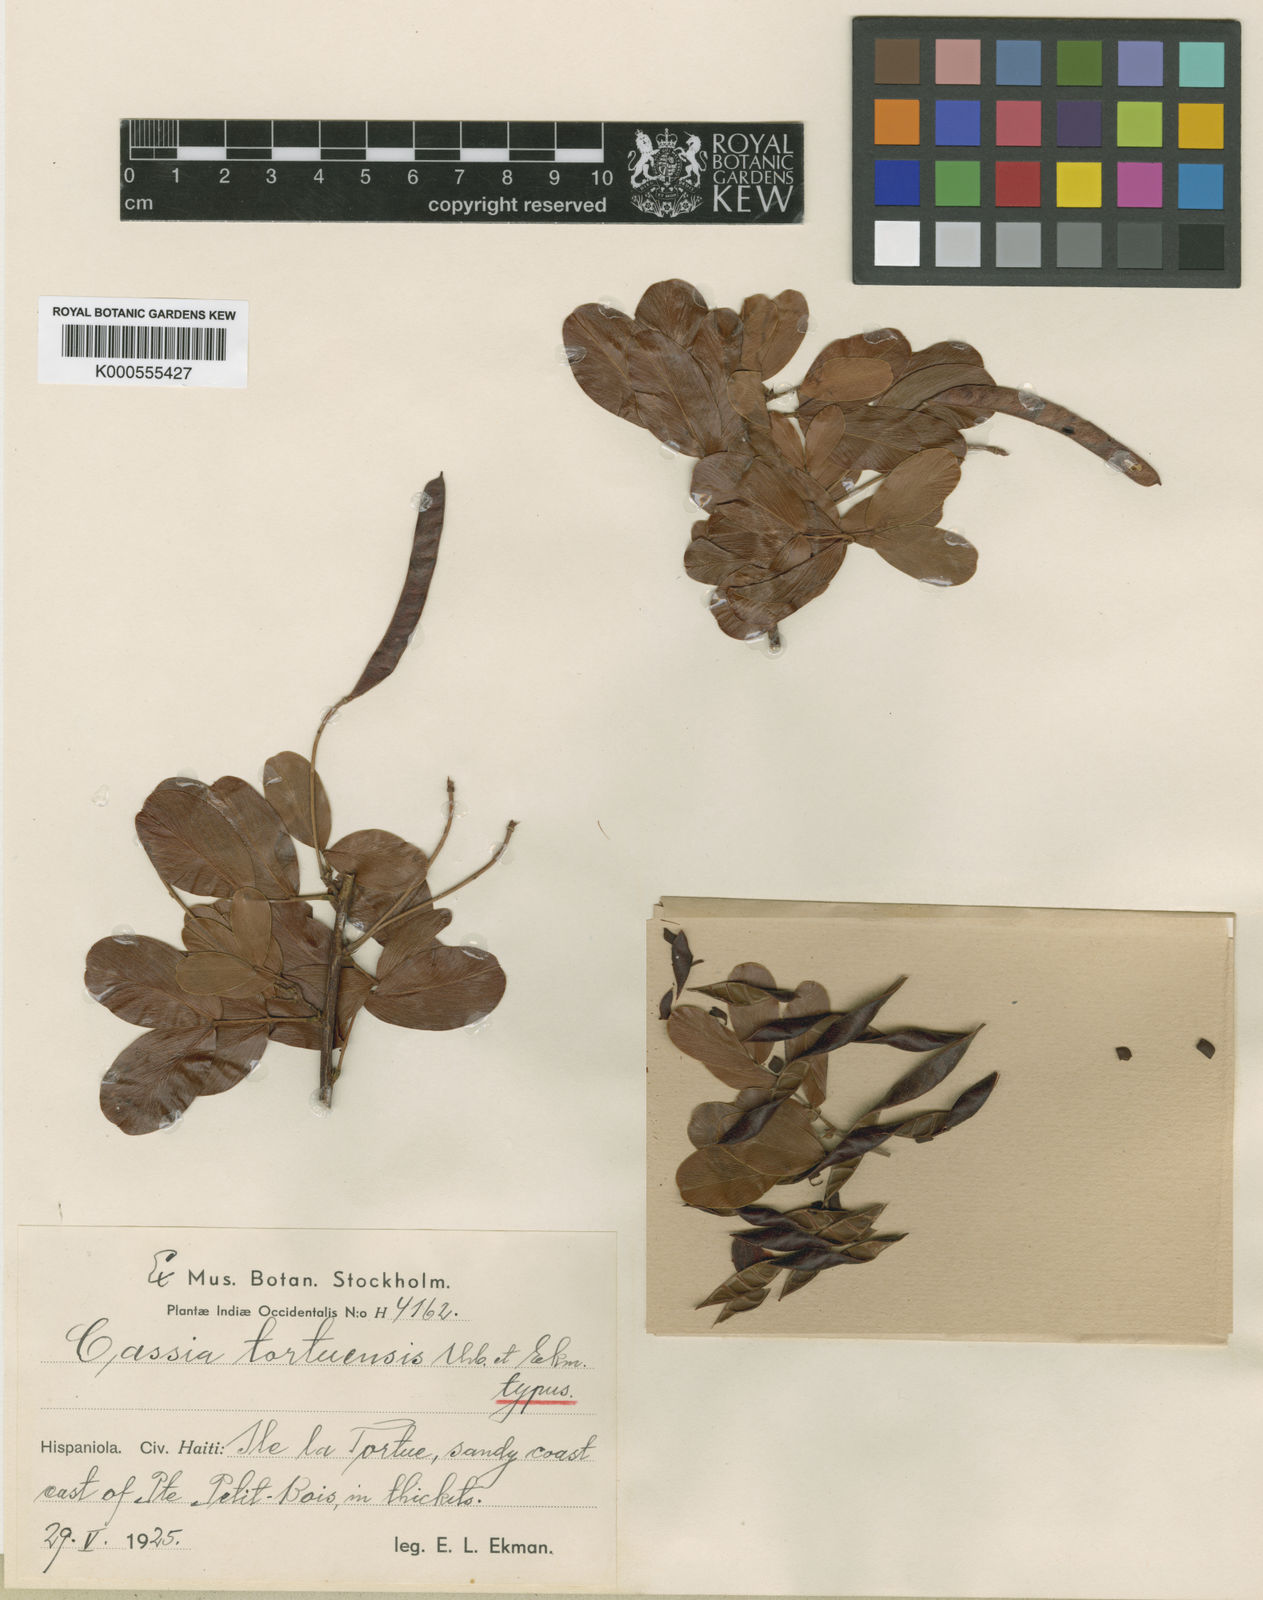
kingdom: Plantae
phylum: Tracheophyta
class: Magnoliopsida
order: Fabales
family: Fabaceae
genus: Chamaecrista
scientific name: Chamaecrista caribaea
